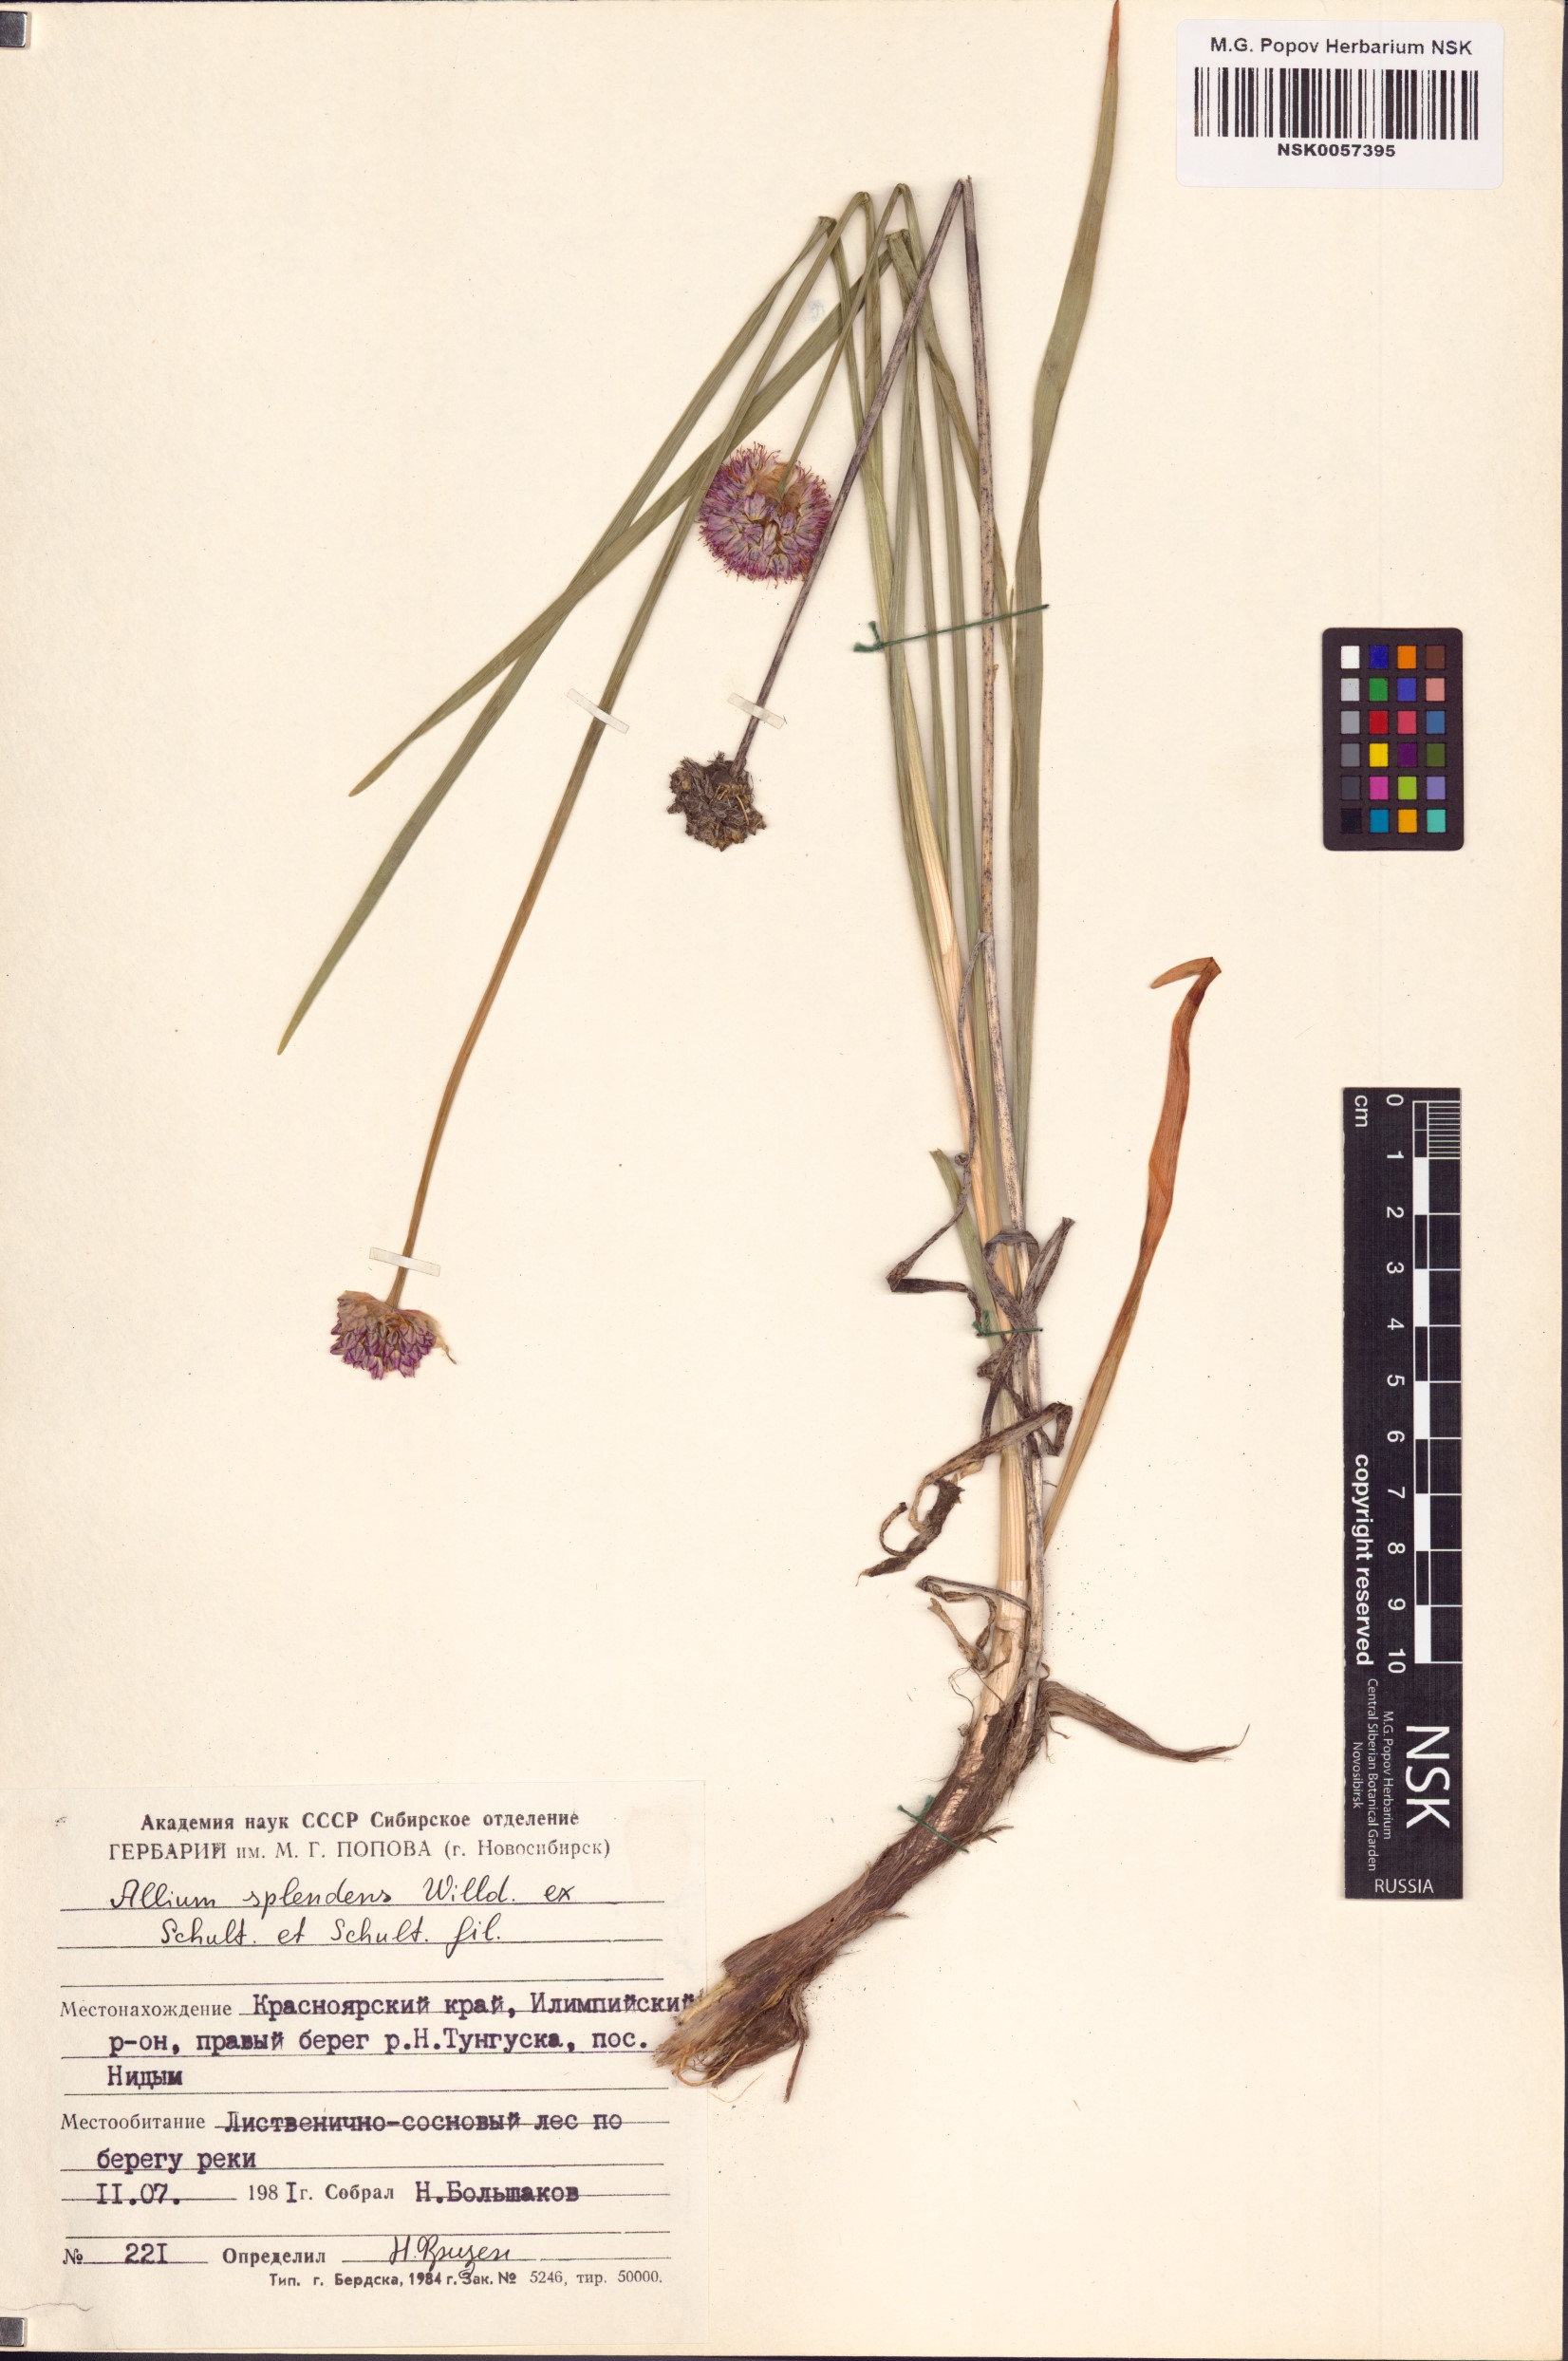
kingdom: Plantae
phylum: Tracheophyta
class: Liliopsida
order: Asparagales
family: Amaryllidaceae
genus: Allium
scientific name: Allium splendens
